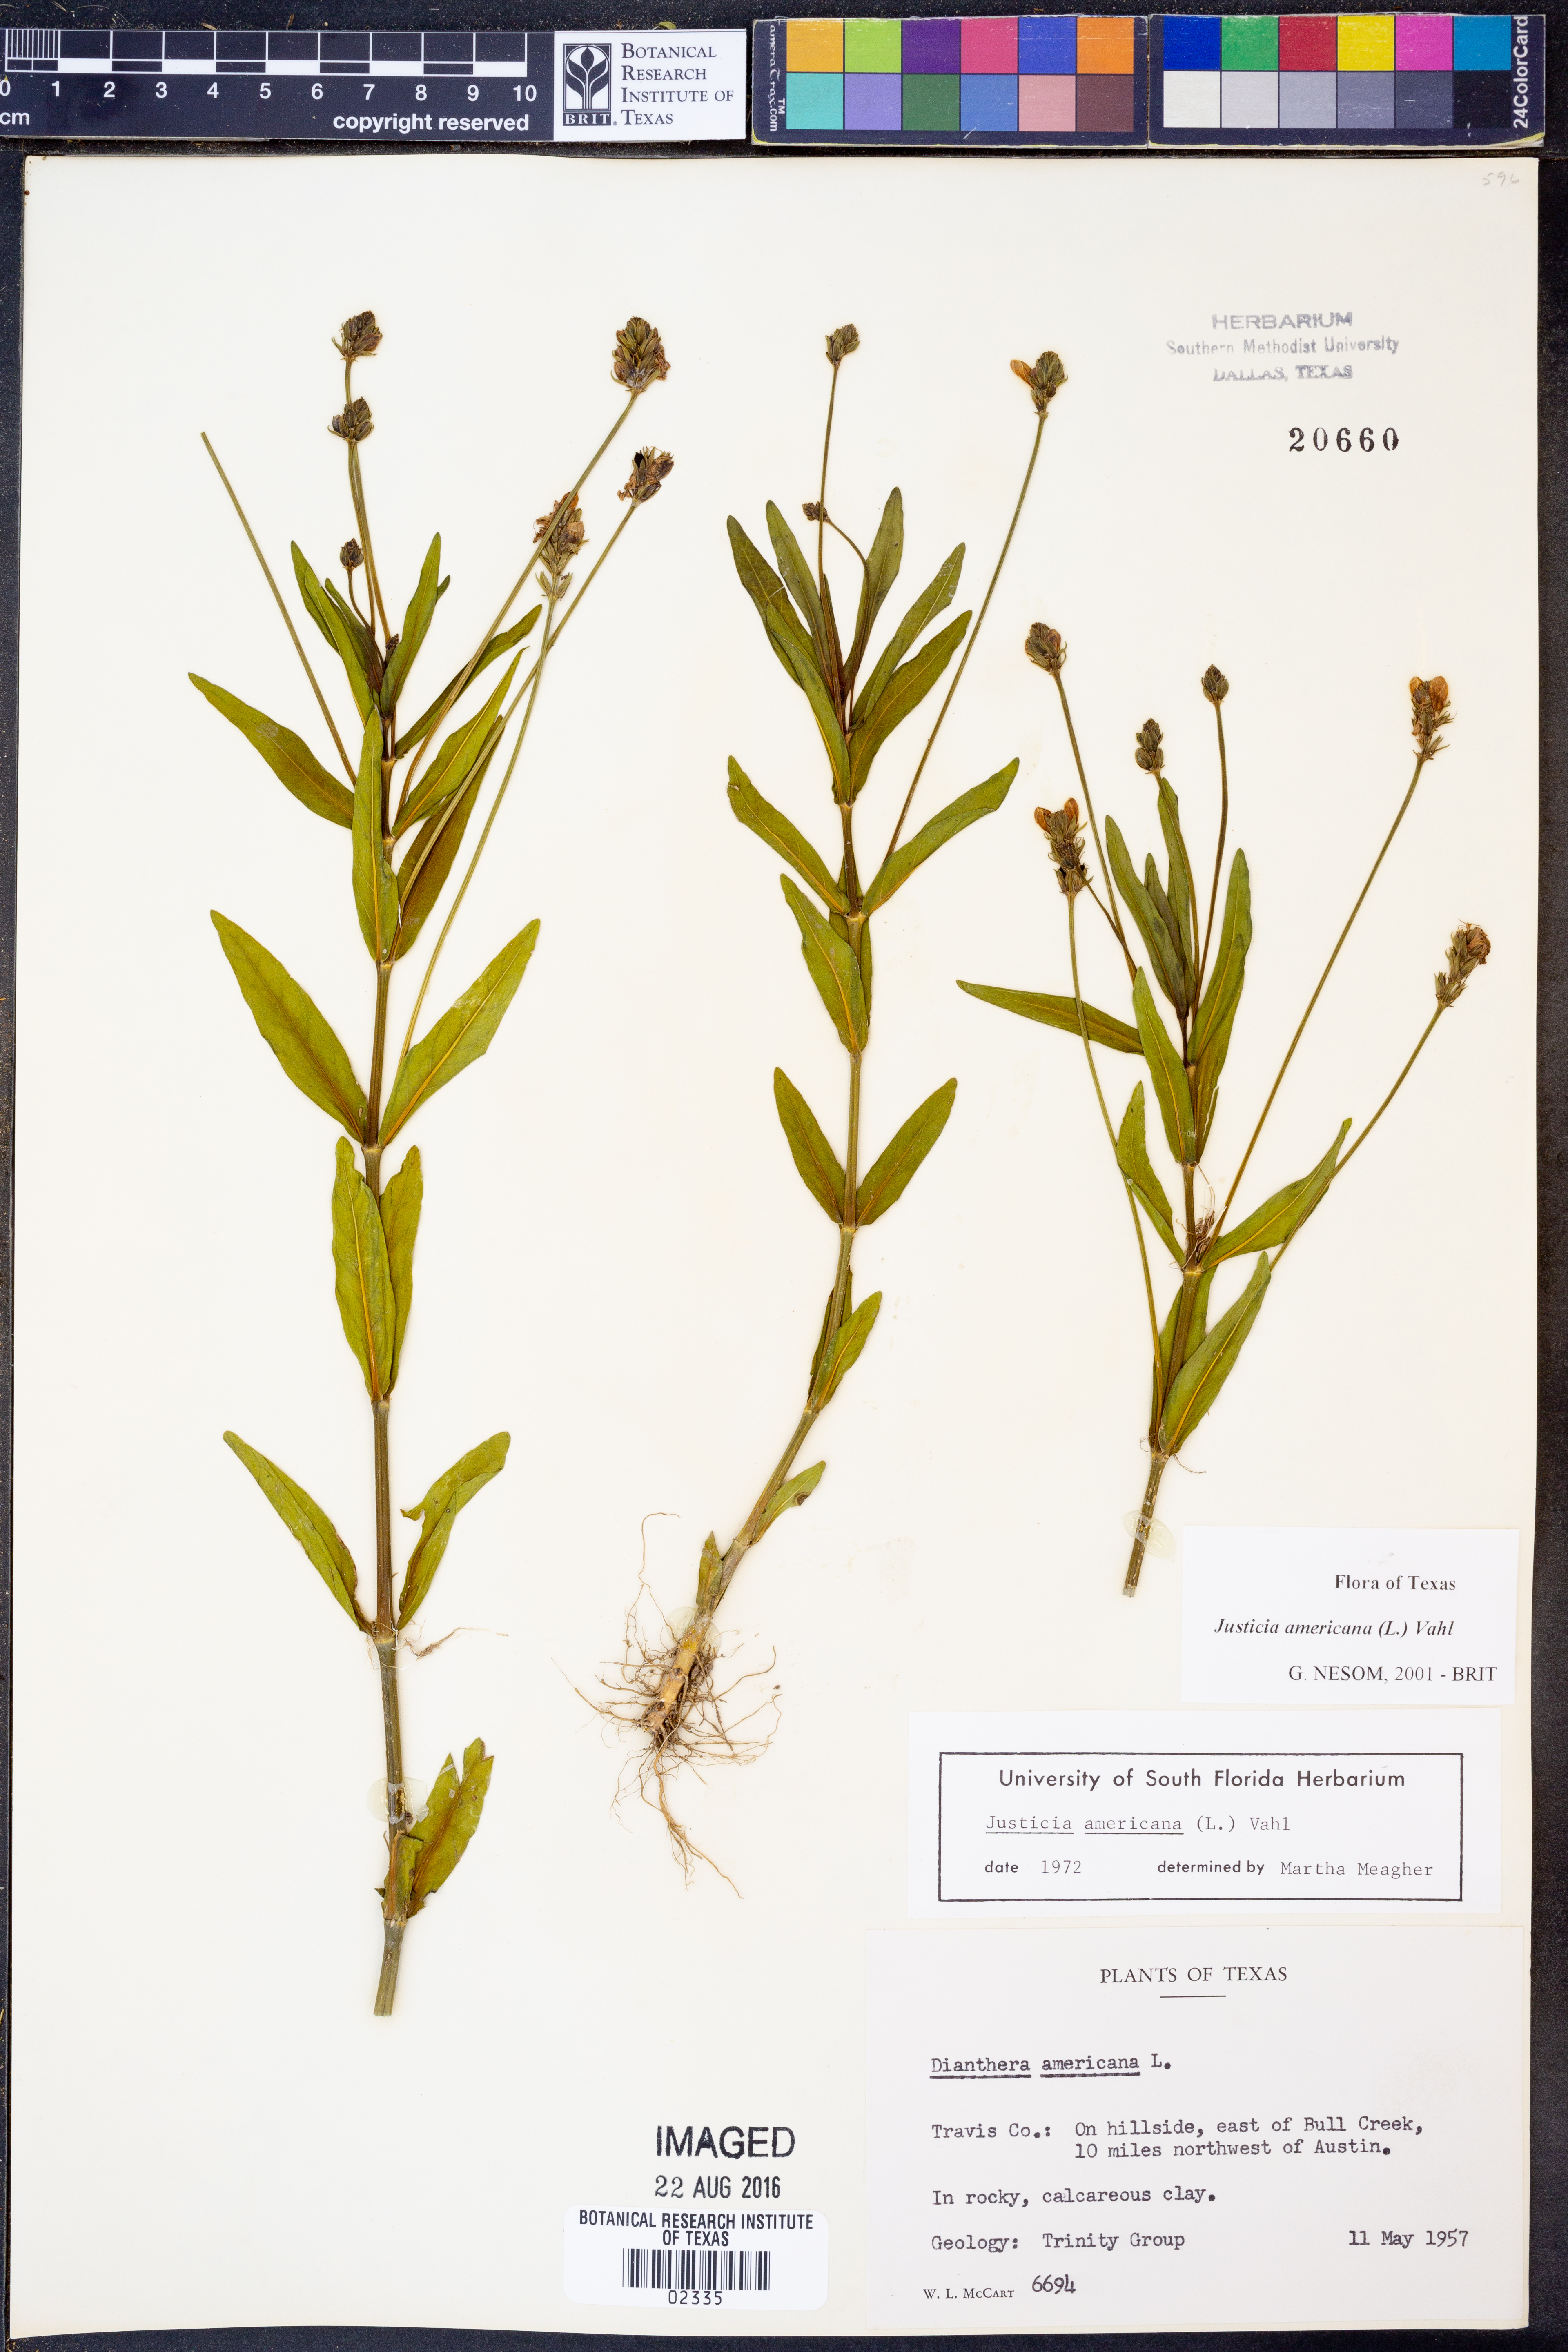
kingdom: Plantae
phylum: Tracheophyta
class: Magnoliopsida
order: Lamiales
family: Acanthaceae
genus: Dianthera
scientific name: Dianthera americana
